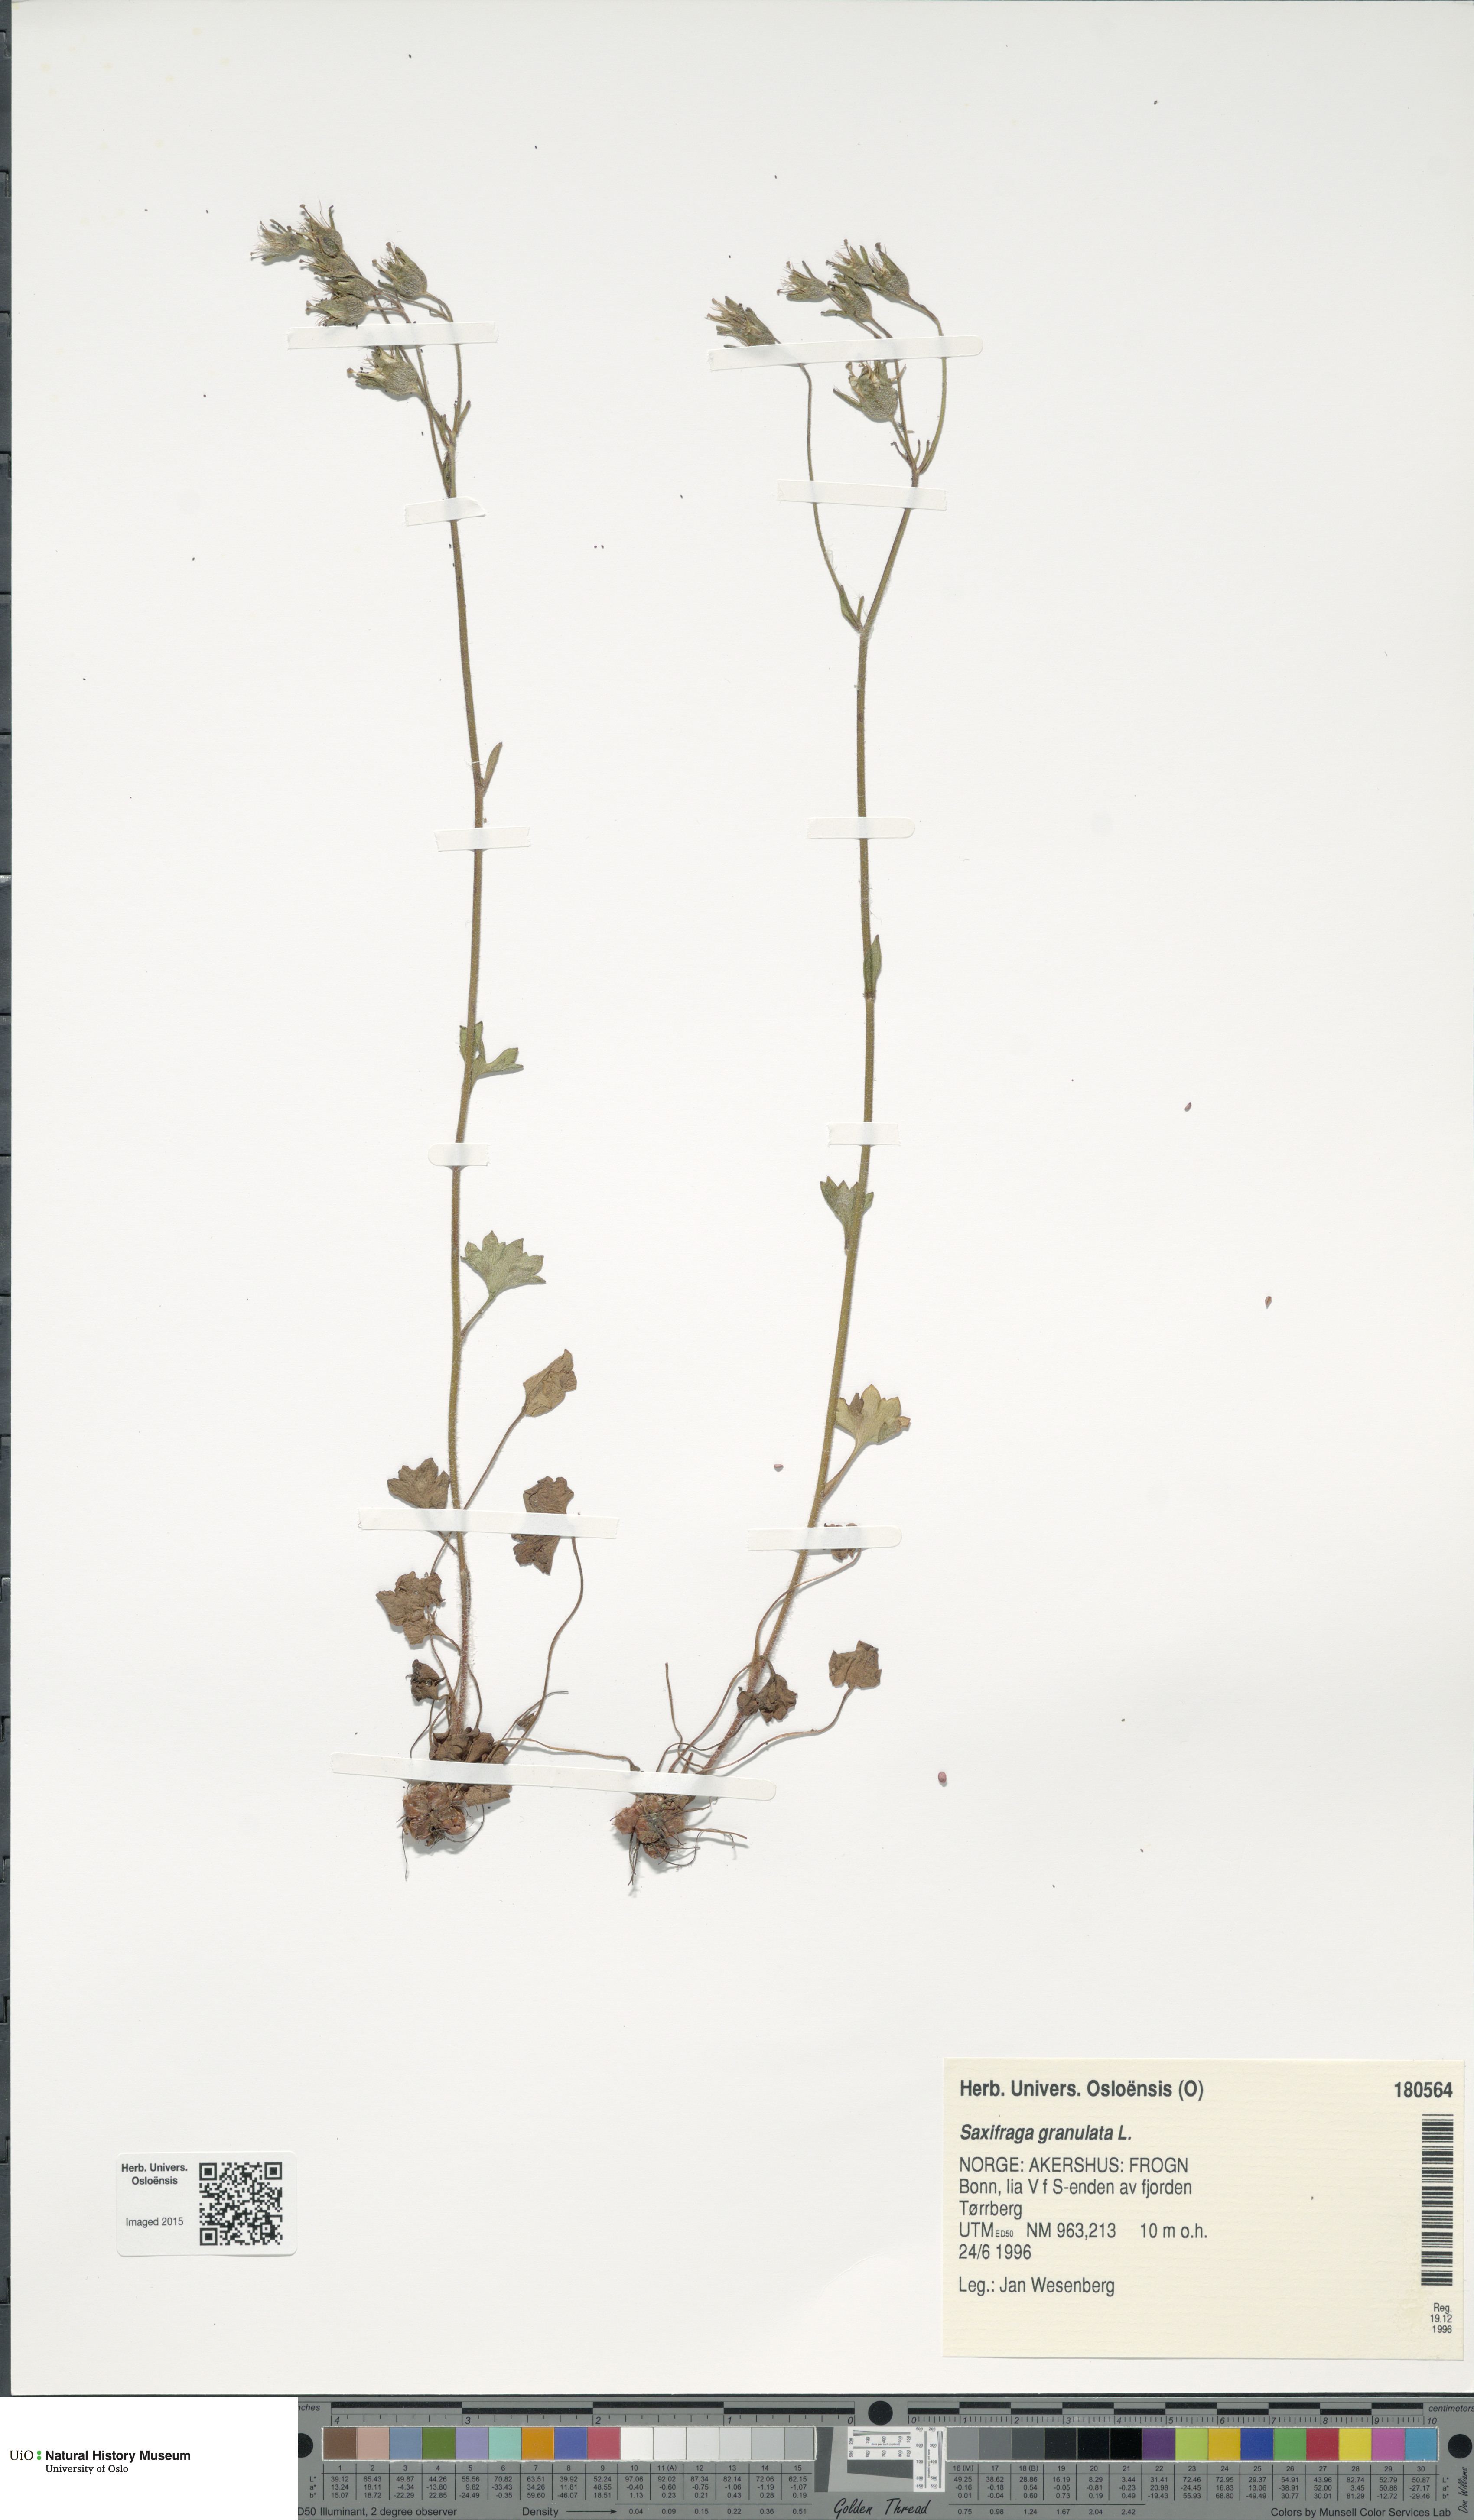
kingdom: Plantae
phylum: Tracheophyta
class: Magnoliopsida
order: Saxifragales
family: Saxifragaceae
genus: Saxifraga
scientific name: Saxifraga granulata
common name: Meadow saxifrage
